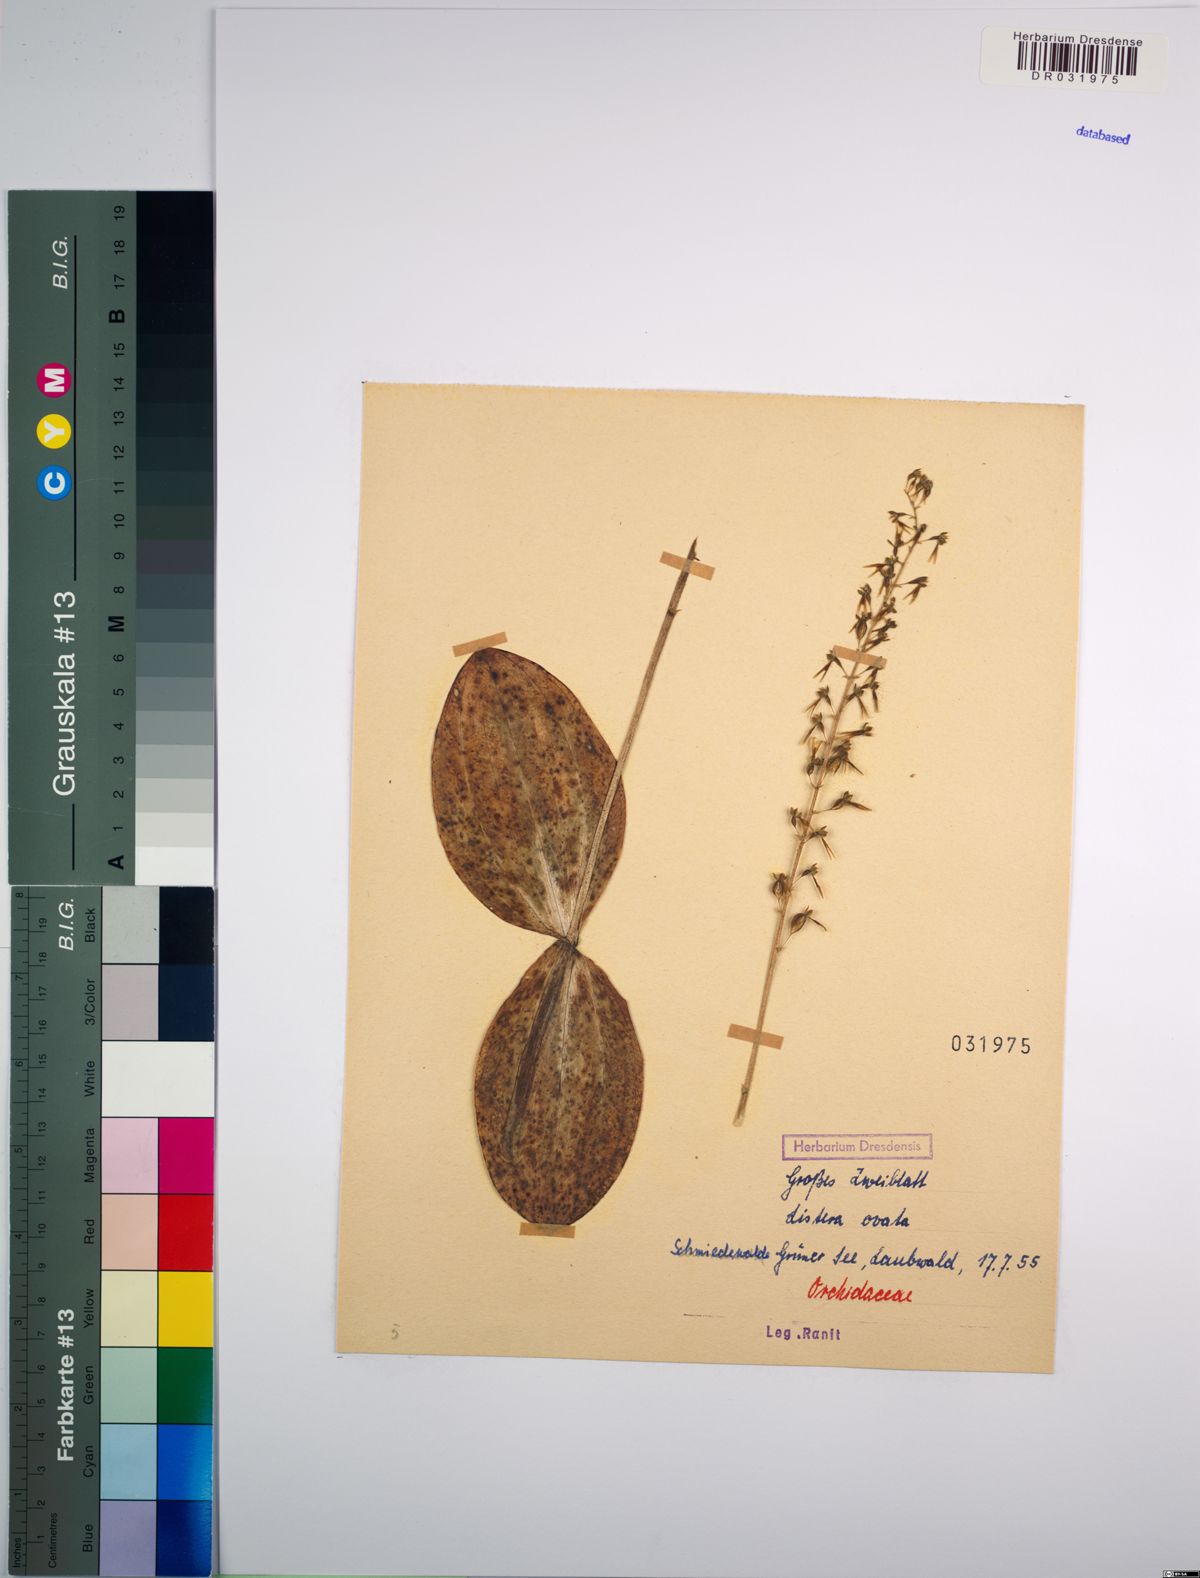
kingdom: Plantae
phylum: Tracheophyta
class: Liliopsida
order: Asparagales
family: Orchidaceae
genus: Neottia
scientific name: Neottia ovata
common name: Common twayblade
